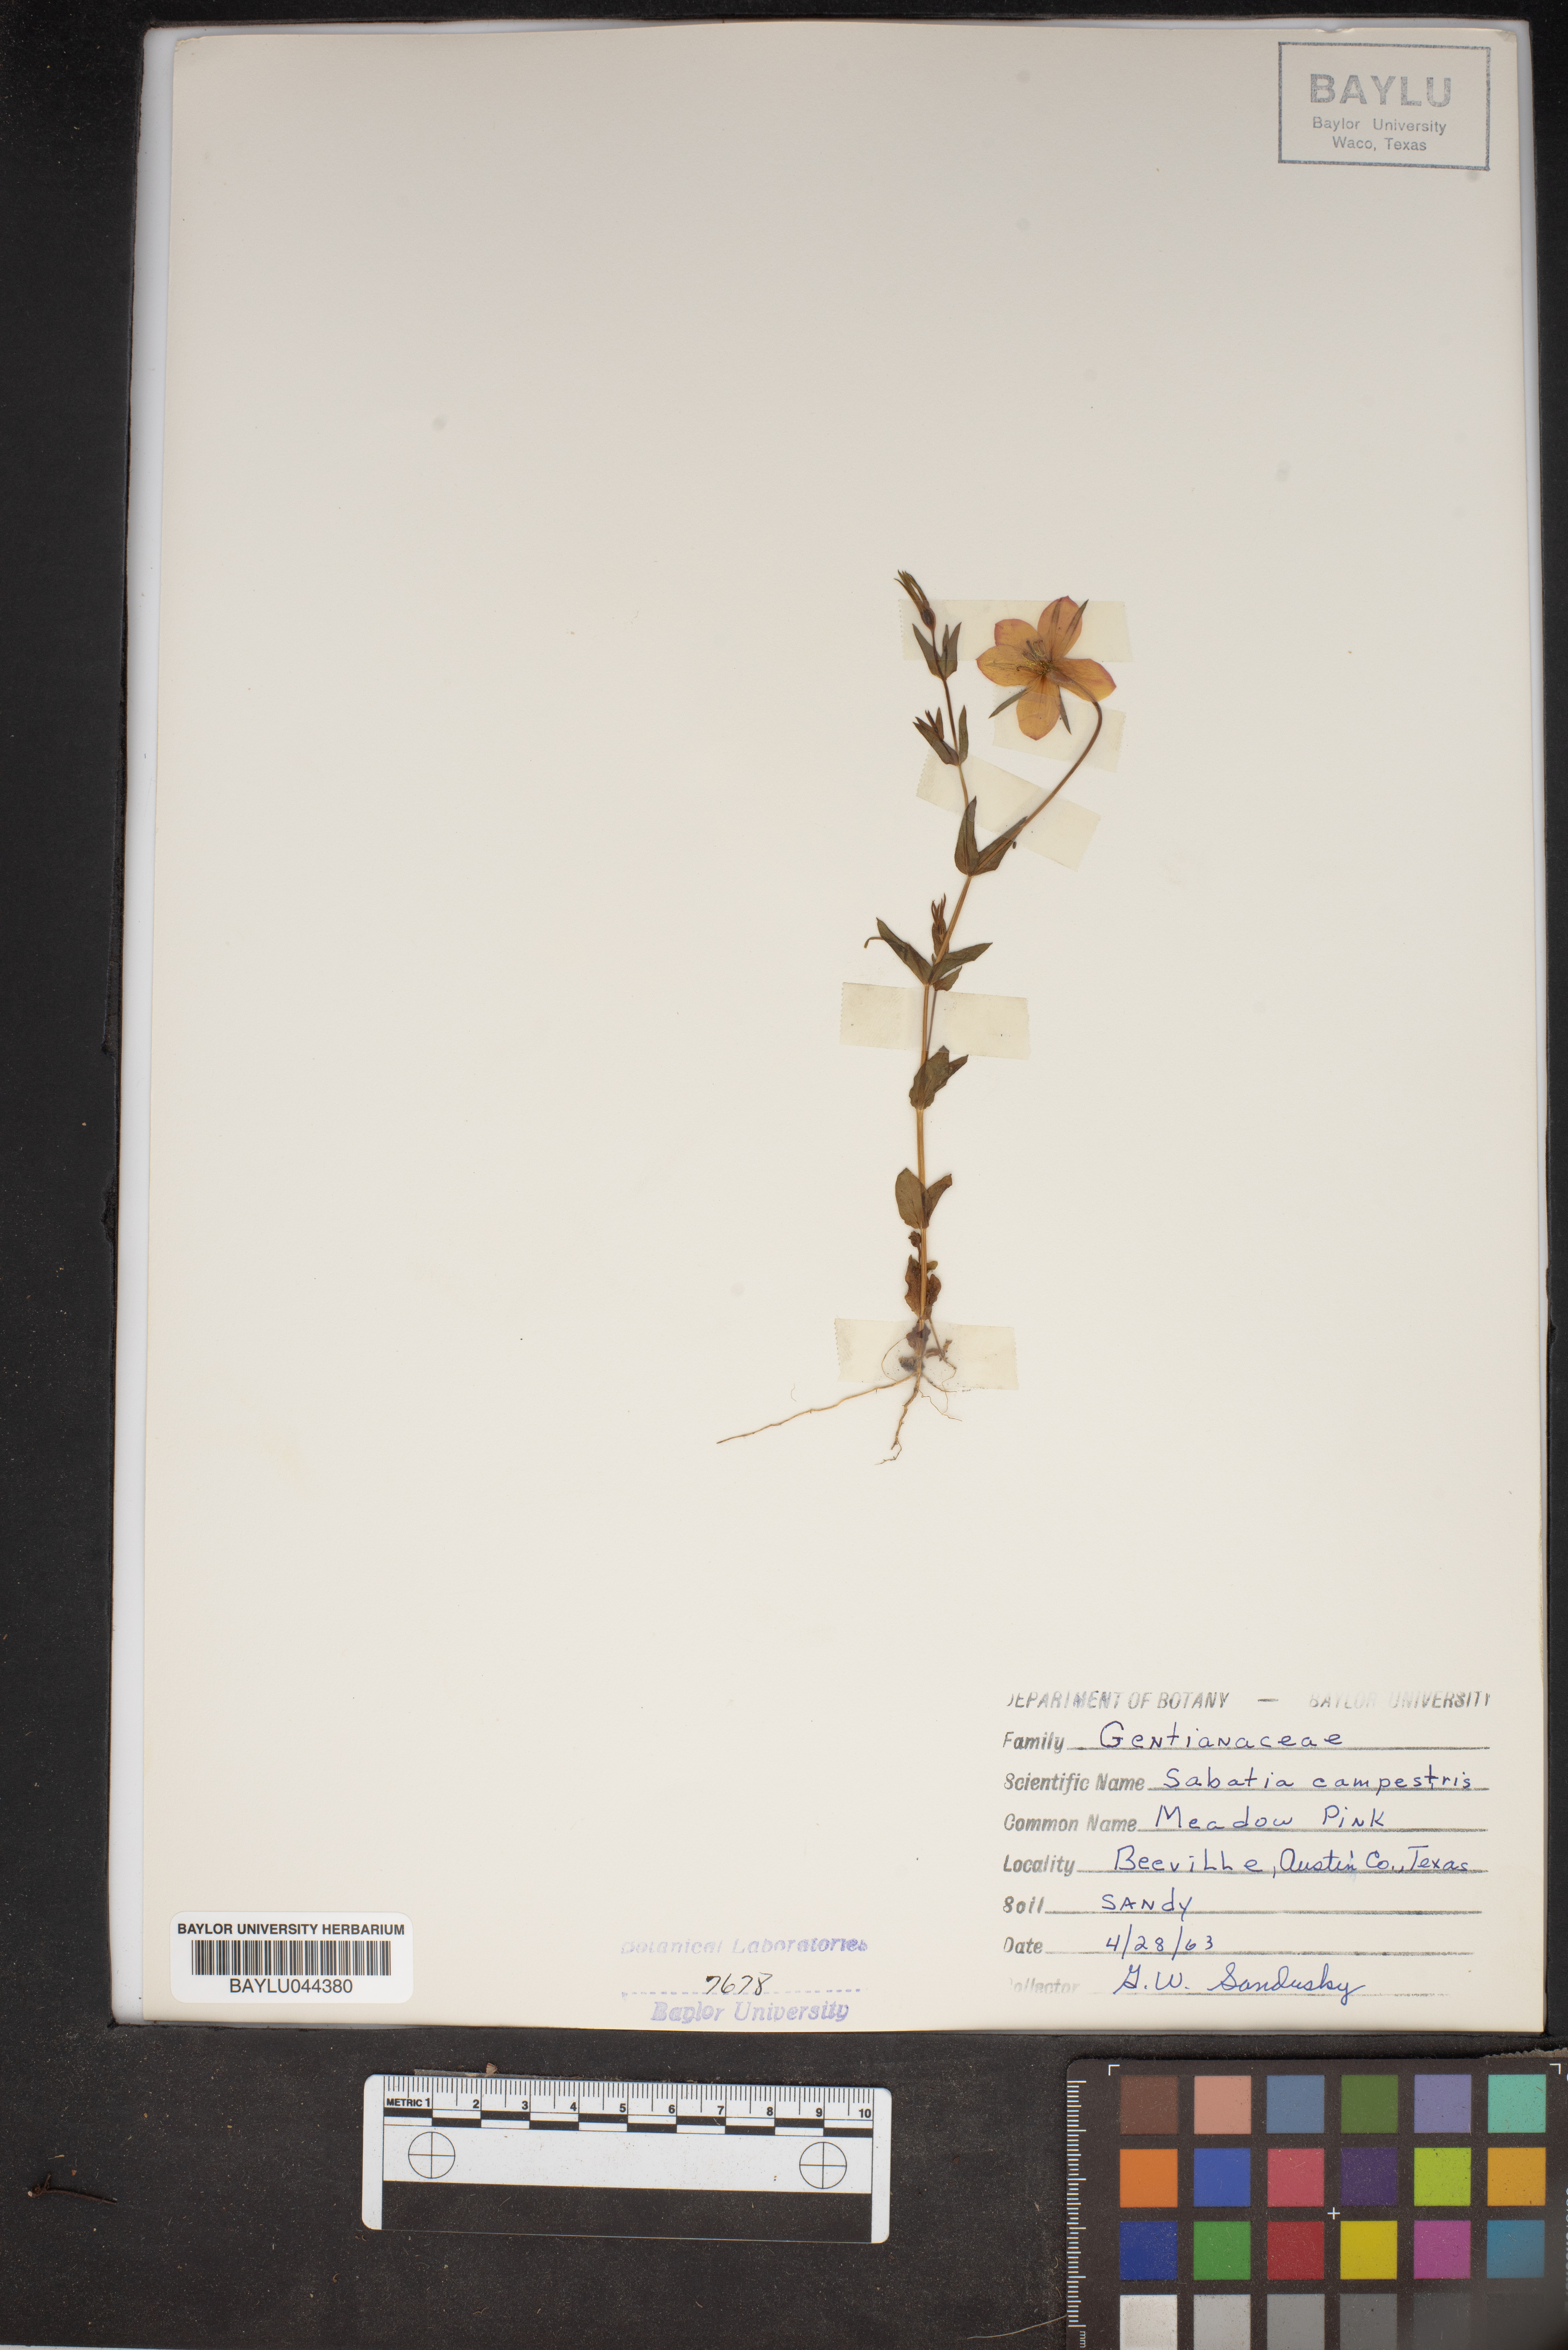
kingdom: Plantae
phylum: Tracheophyta
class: Magnoliopsida
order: Gentianales
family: Gentianaceae
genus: Sabatia
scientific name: Sabatia campestris
